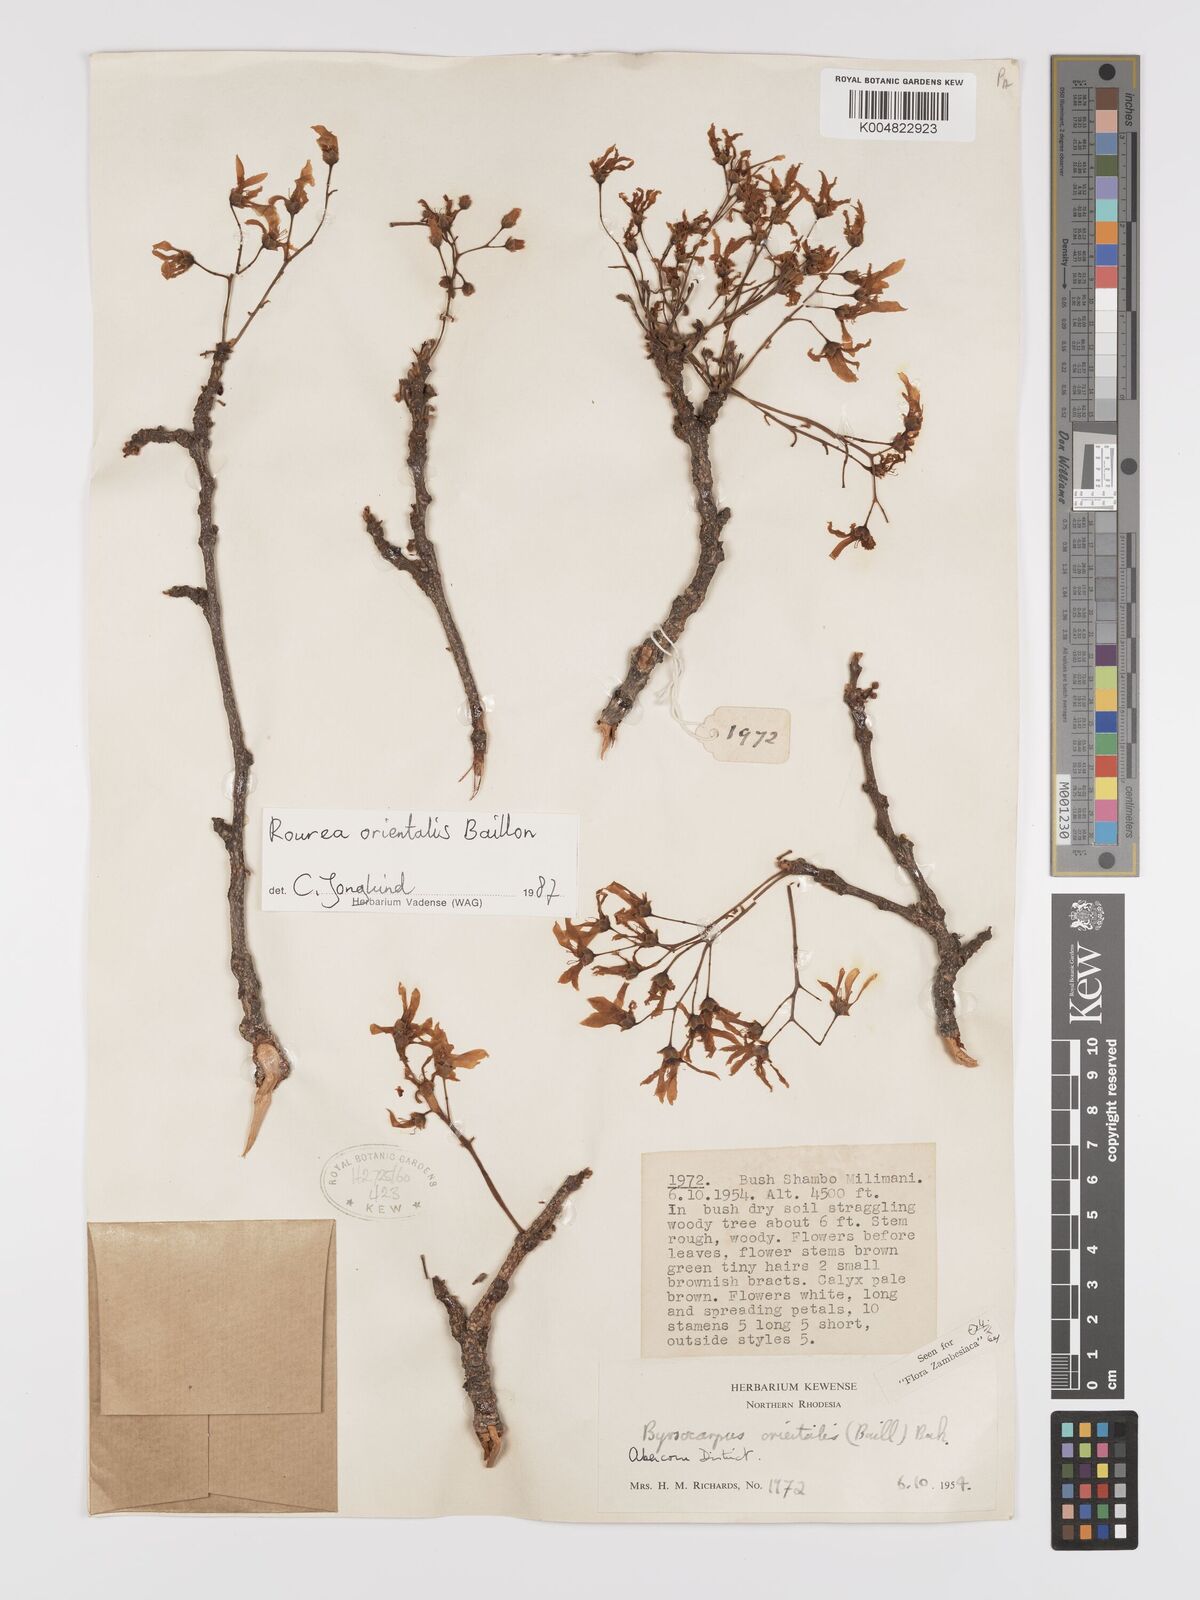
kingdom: Plantae
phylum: Tracheophyta
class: Magnoliopsida
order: Oxalidales
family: Connaraceae
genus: Rourea
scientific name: Rourea orientalis
